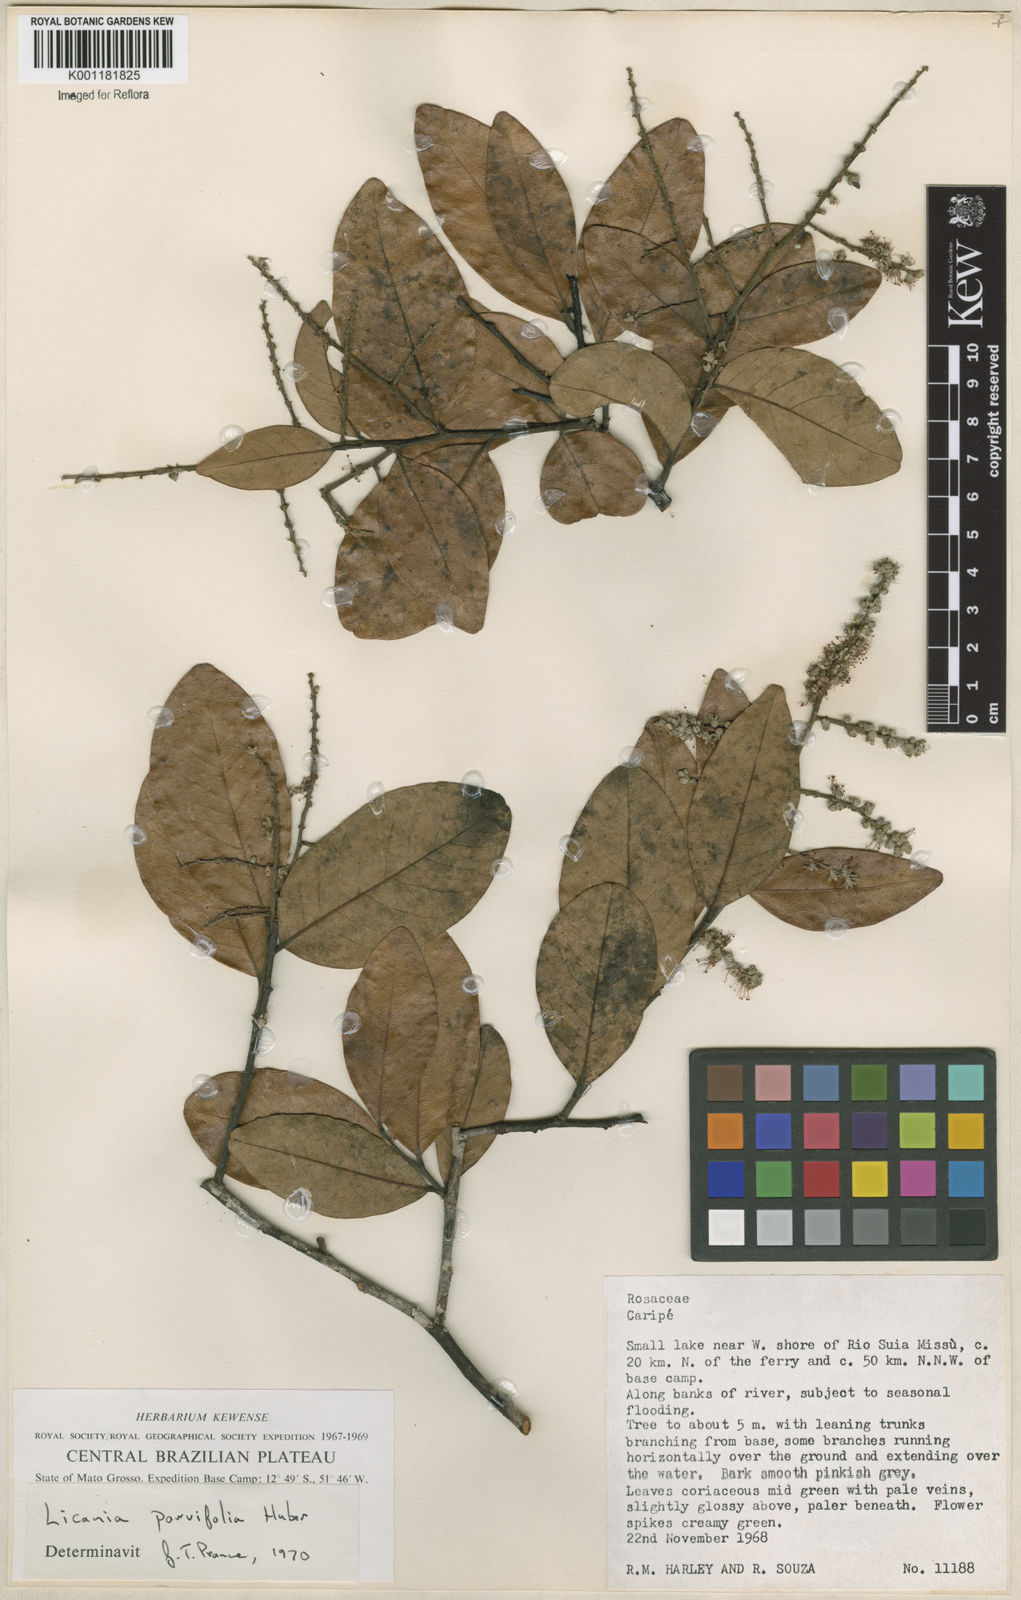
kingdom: Plantae
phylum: Tracheophyta
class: Magnoliopsida
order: Malpighiales
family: Chrysobalanaceae
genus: Licania
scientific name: Licania parvifolia
